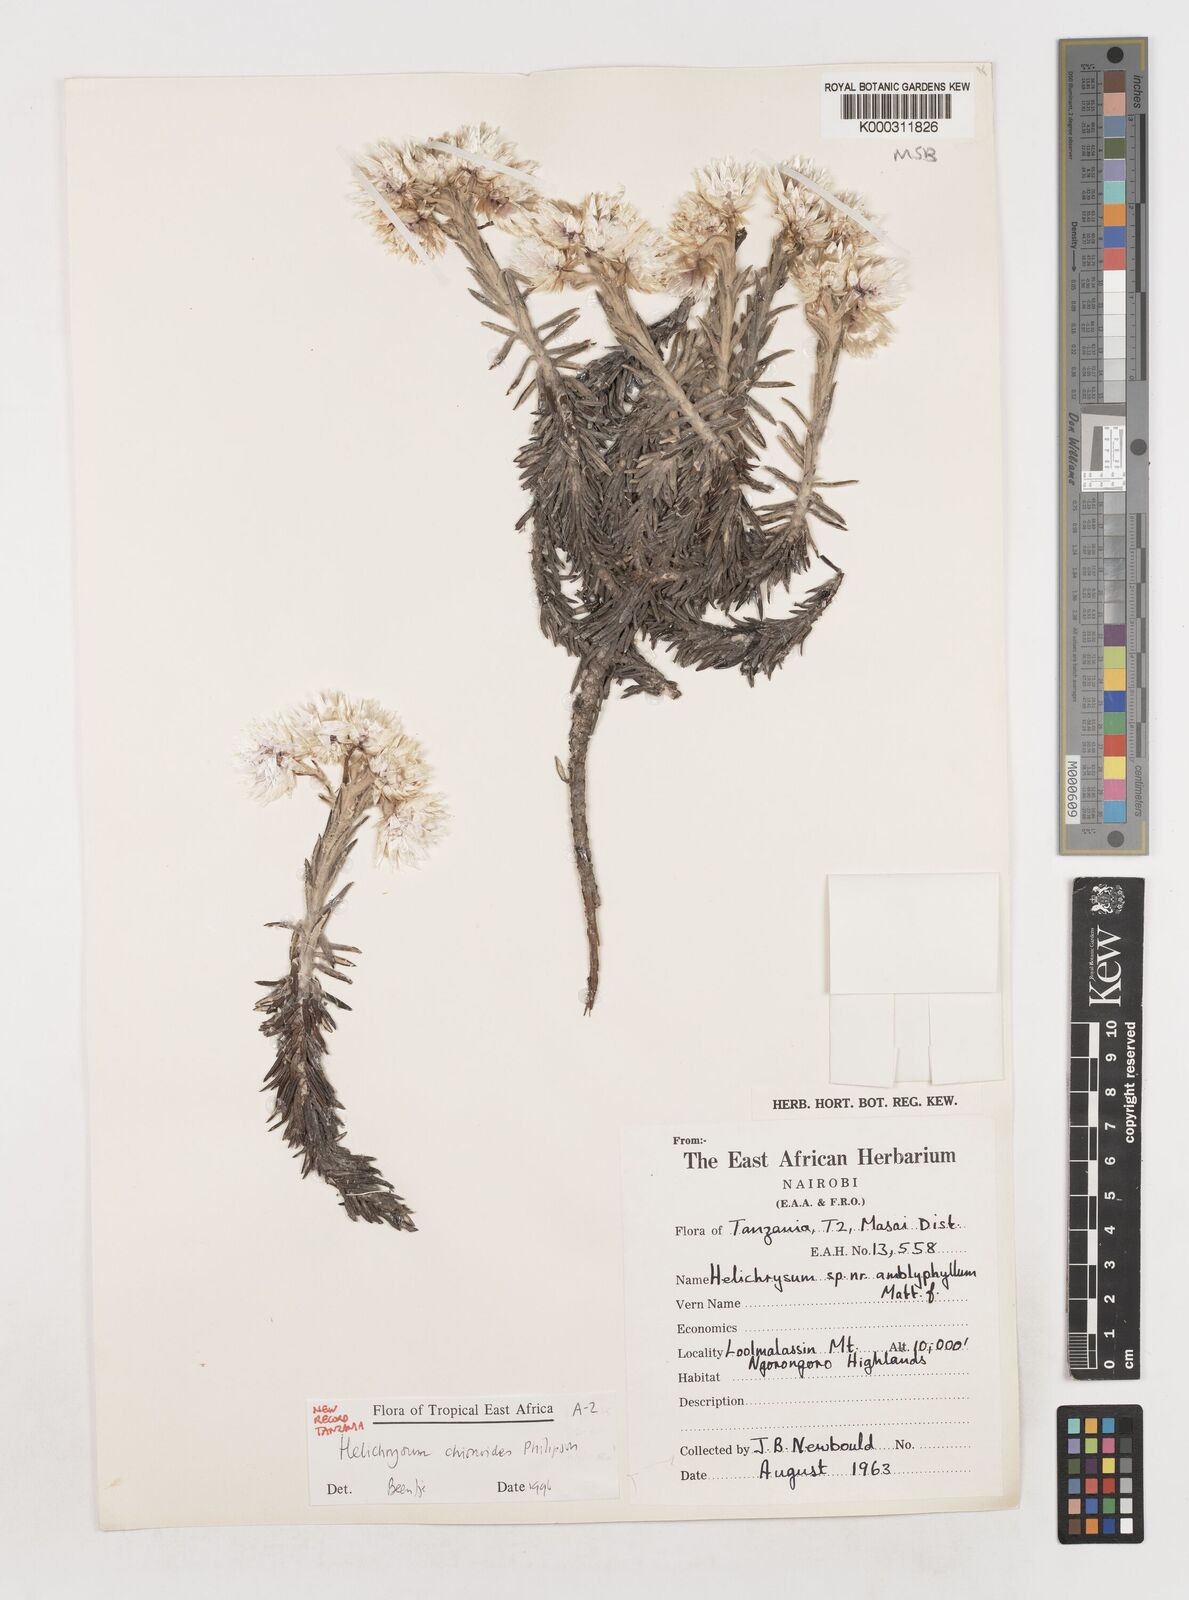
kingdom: Plantae
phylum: Tracheophyta
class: Magnoliopsida
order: Asterales
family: Asteraceae
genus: Helichrysum
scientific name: Helichrysum chionoides
